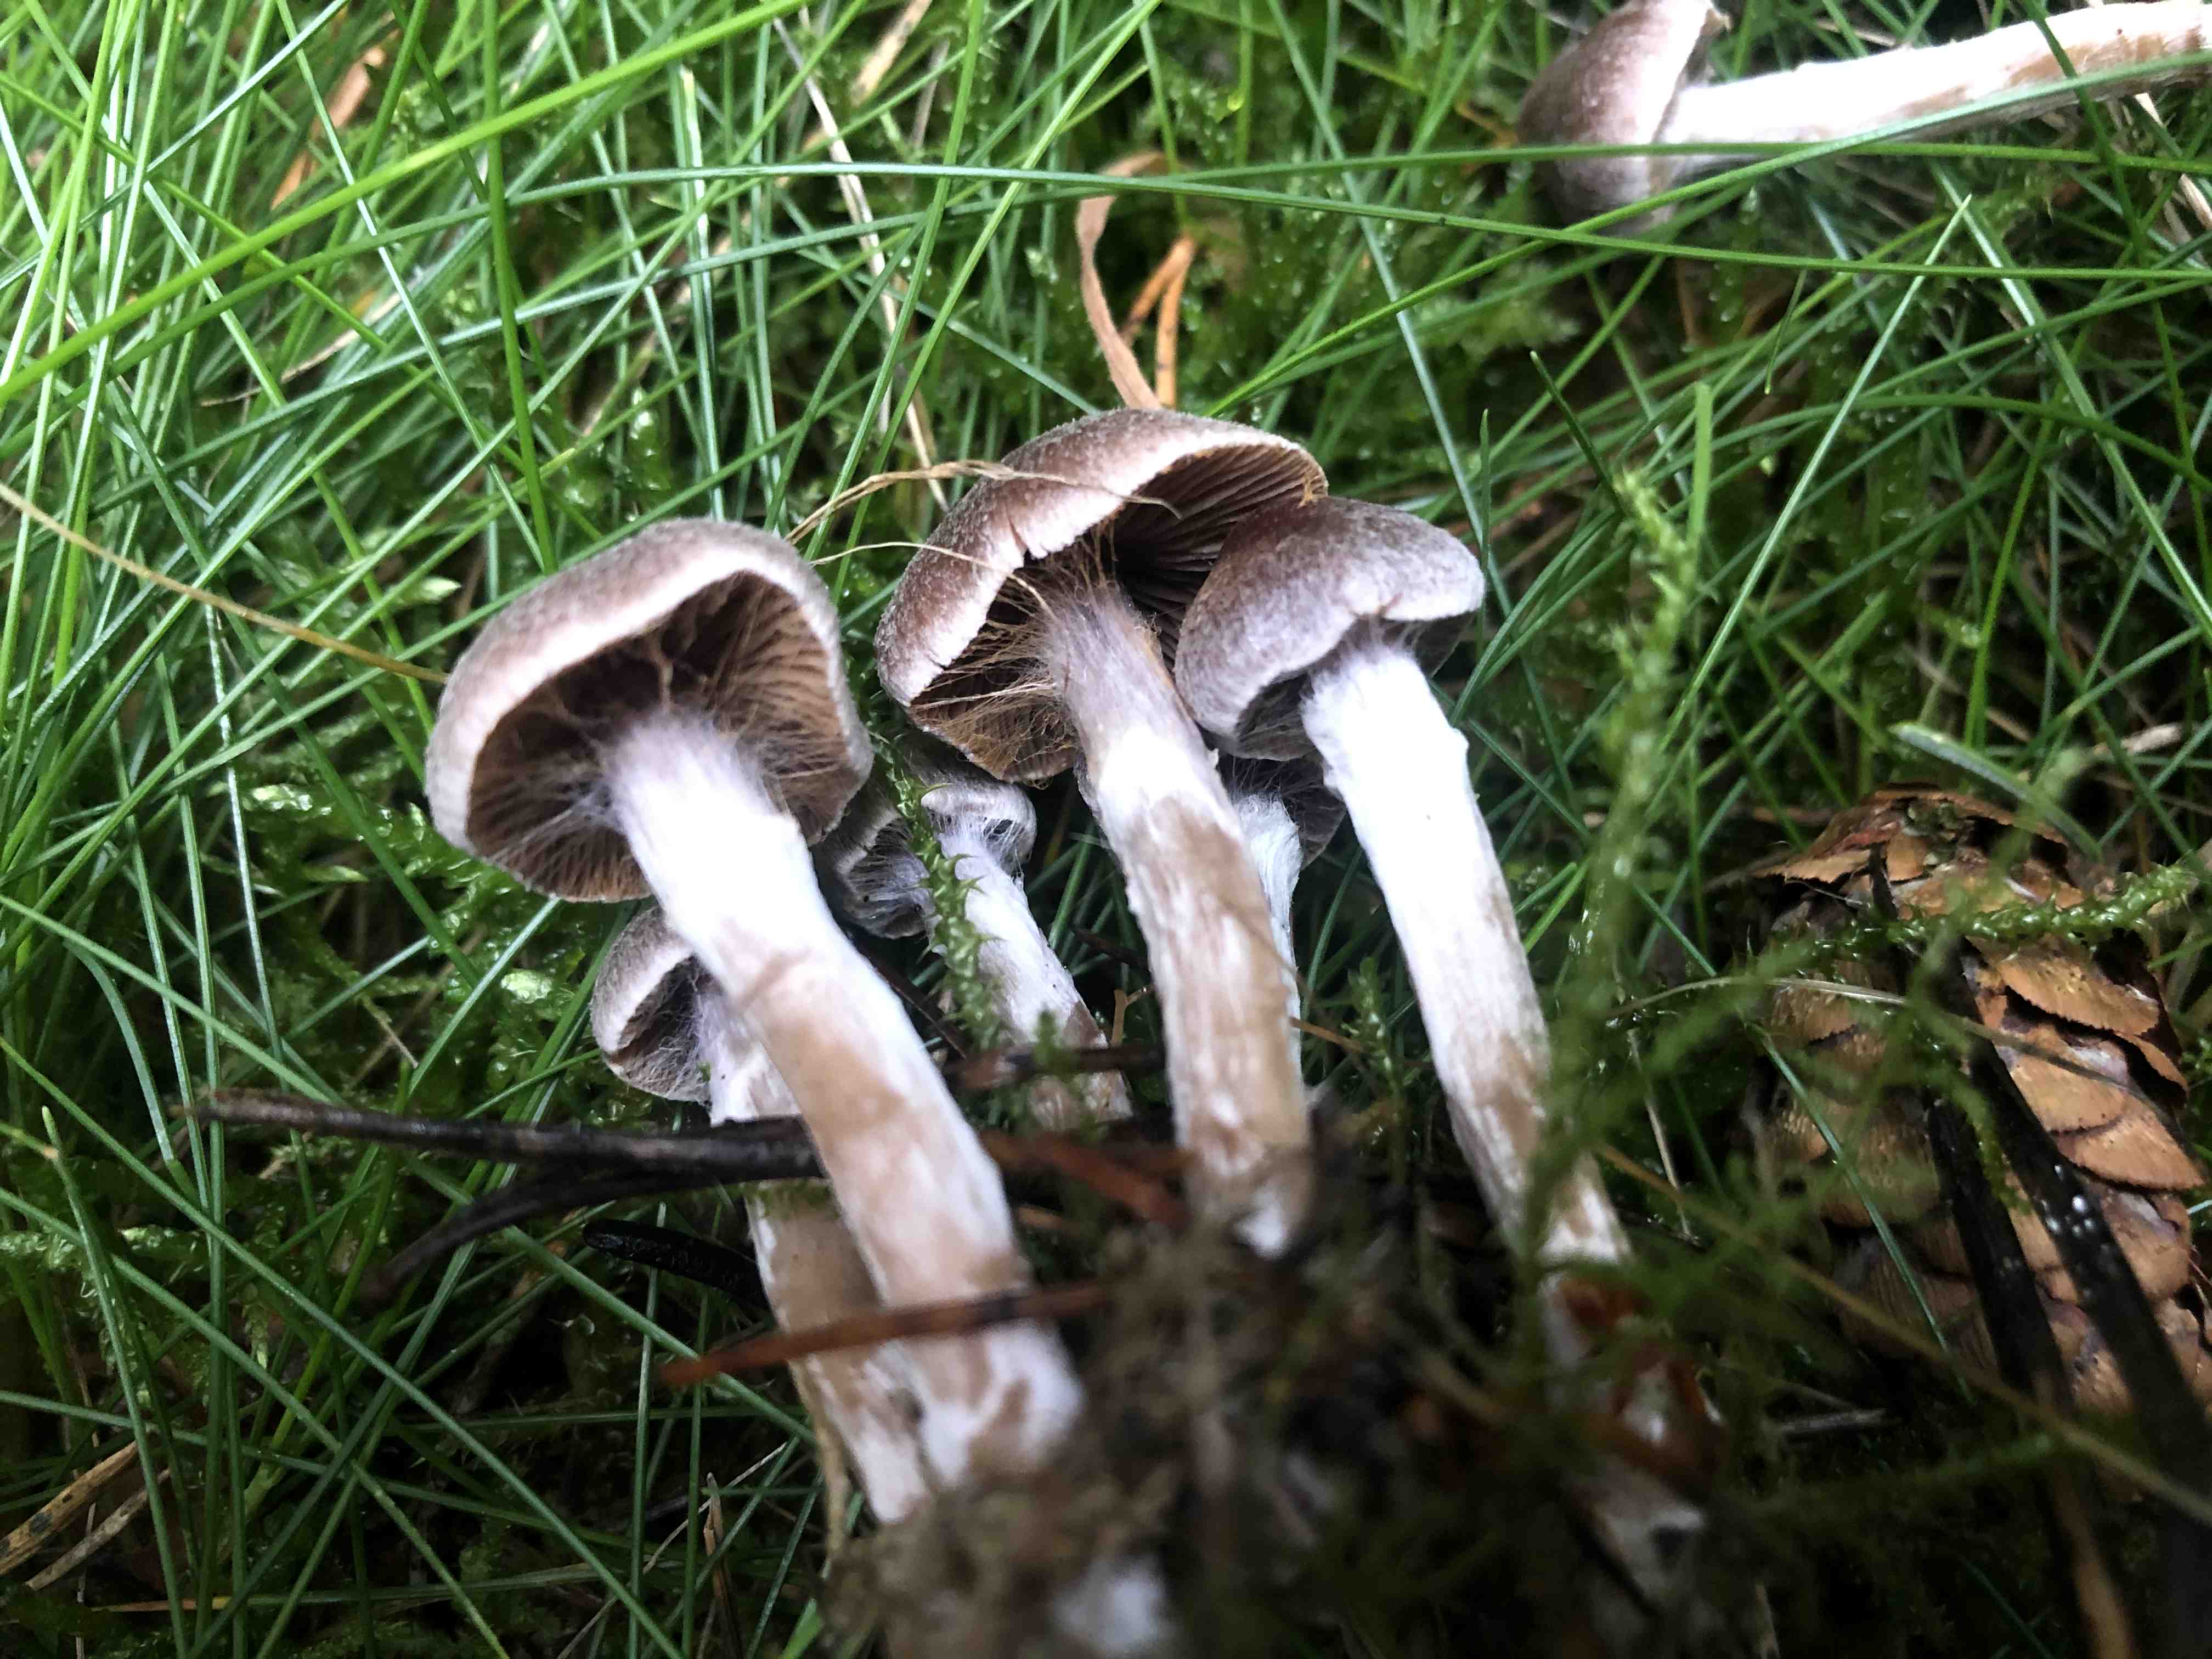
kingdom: Fungi
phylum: Basidiomycota
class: Agaricomycetes
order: Agaricales
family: Cortinariaceae
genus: Cortinarius
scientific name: Cortinarius
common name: pelargonie-slørhat
